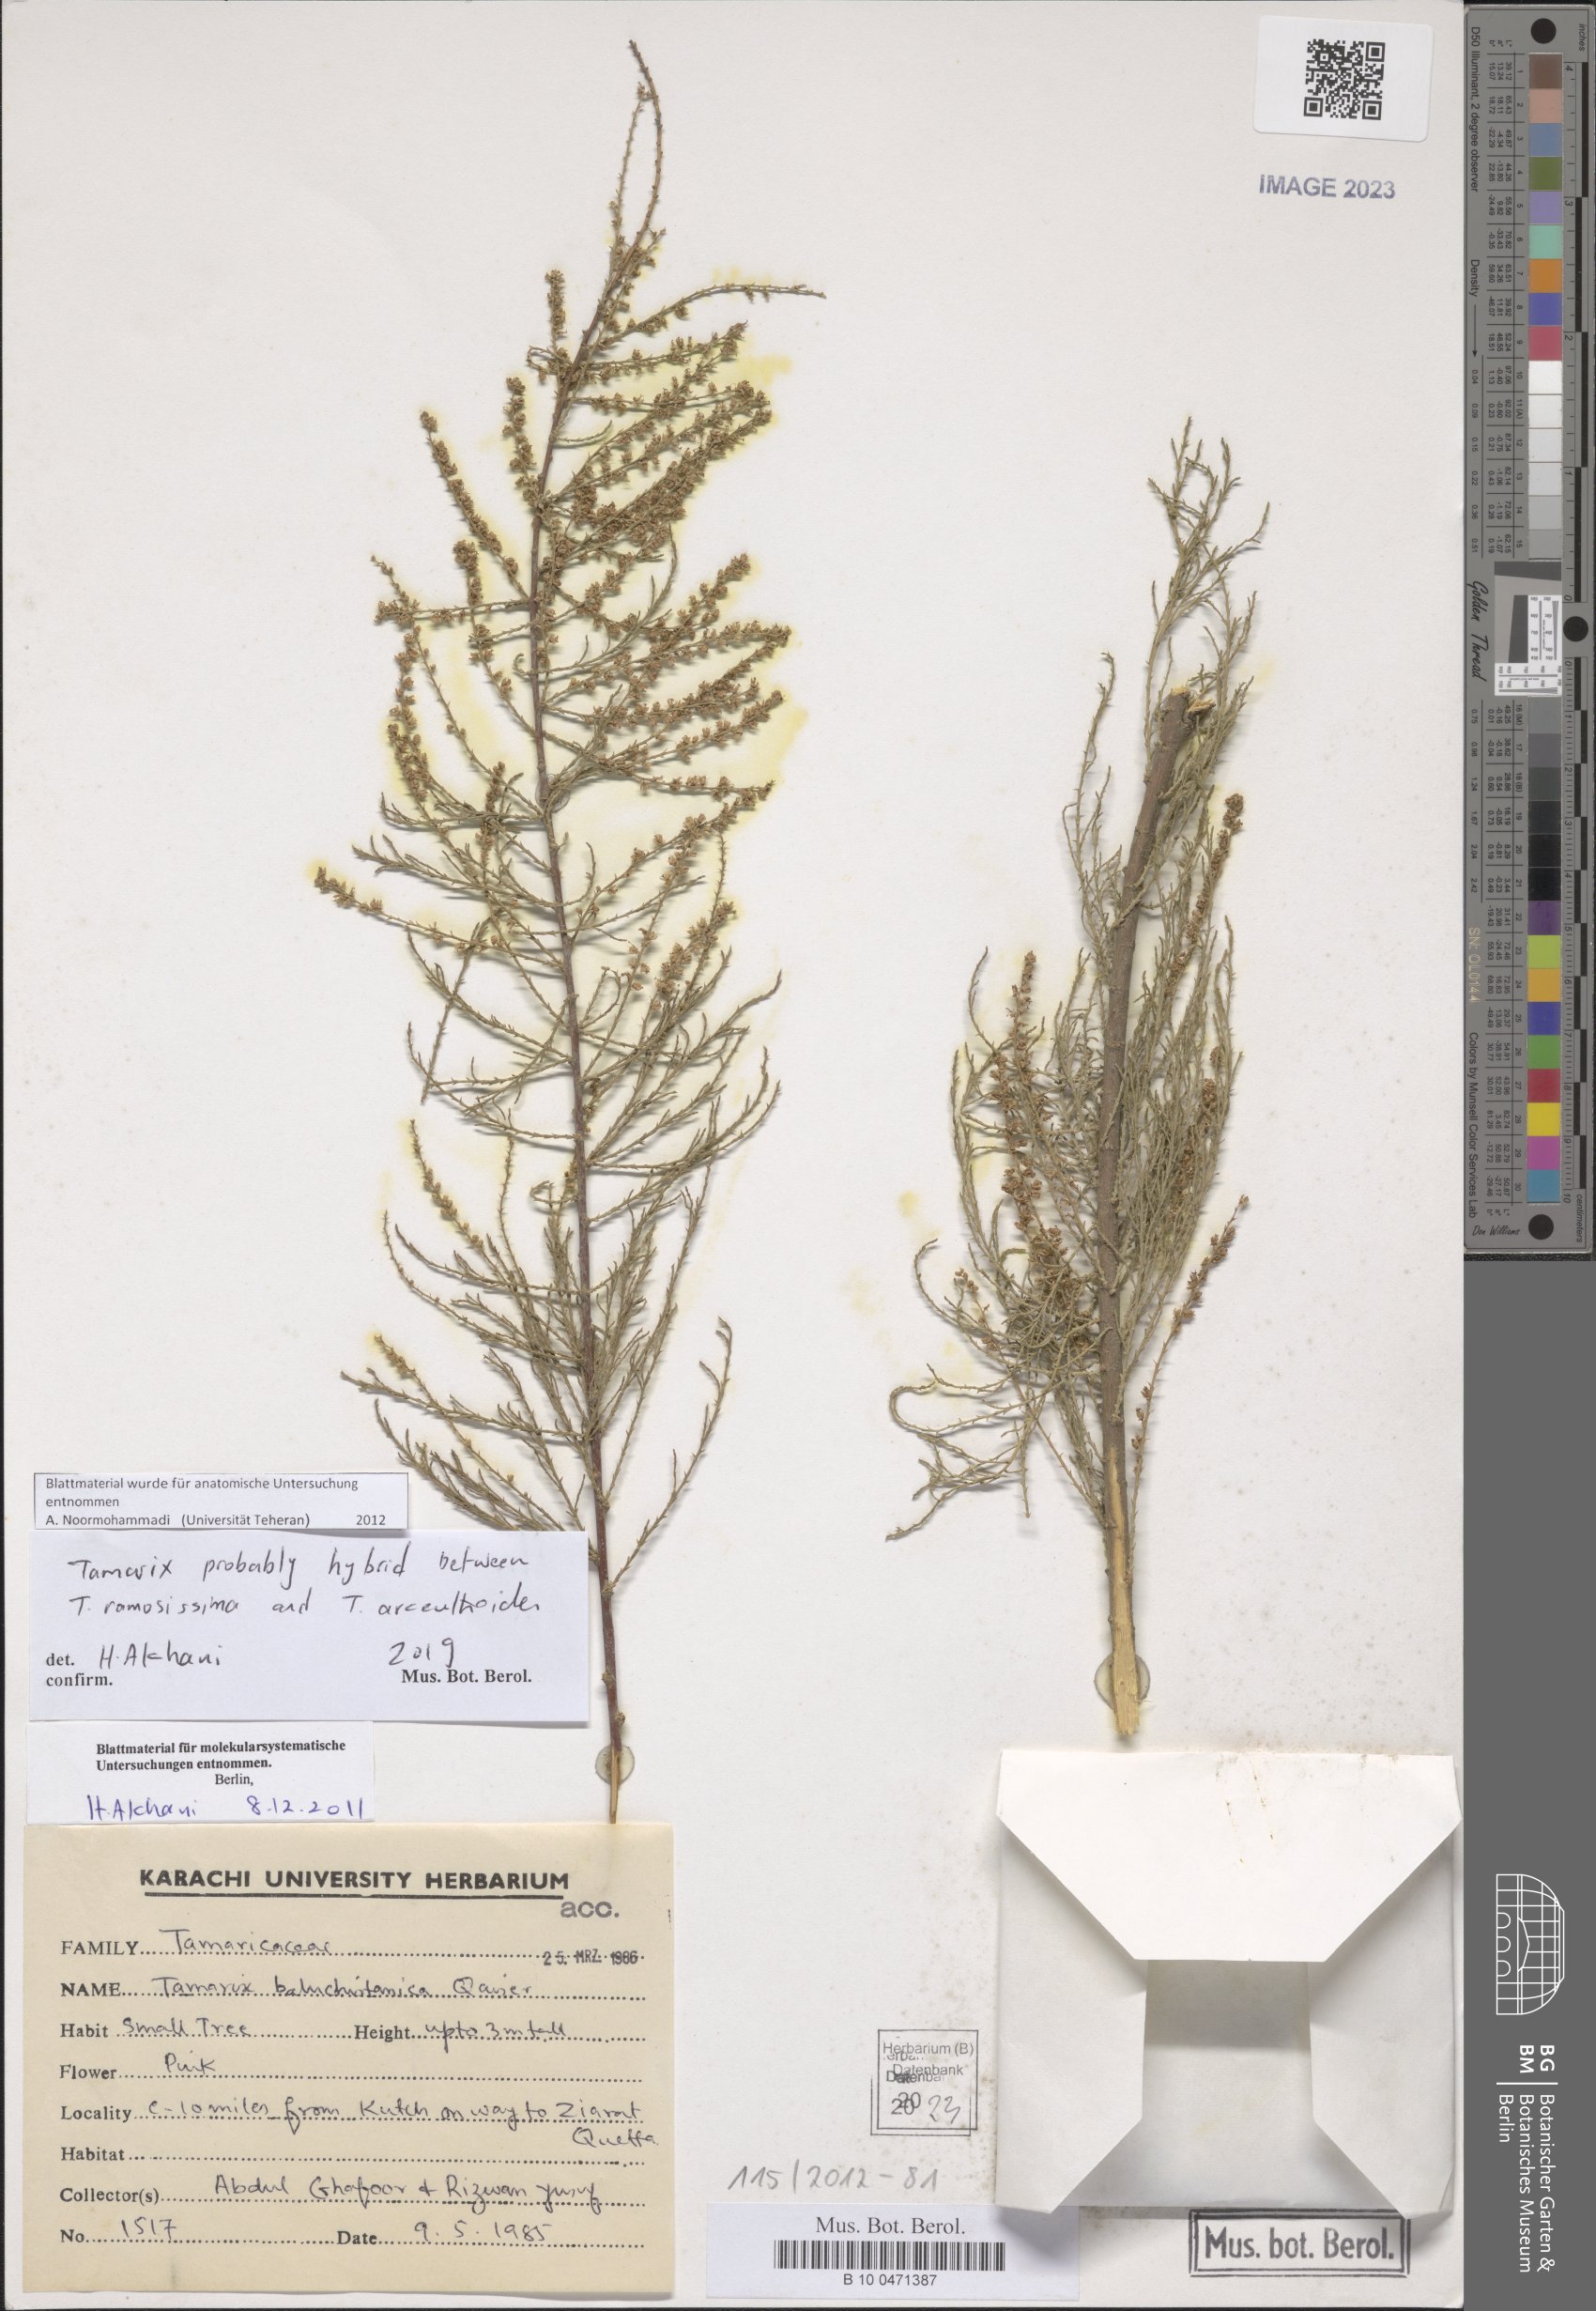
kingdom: Plantae
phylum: Tracheophyta
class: Magnoliopsida
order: Caryophyllales
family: Tamaricaceae
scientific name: Tamaricaceae
